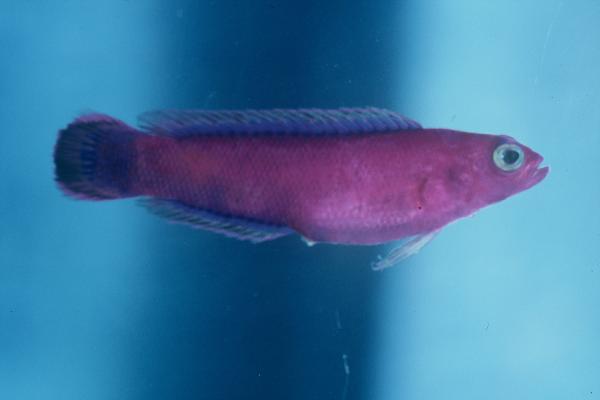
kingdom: Animalia
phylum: Chordata
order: Perciformes
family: Pseudochromidae
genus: Chlidichthys
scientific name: Chlidichthys johnvoelckeri
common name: Cerise dottyback
